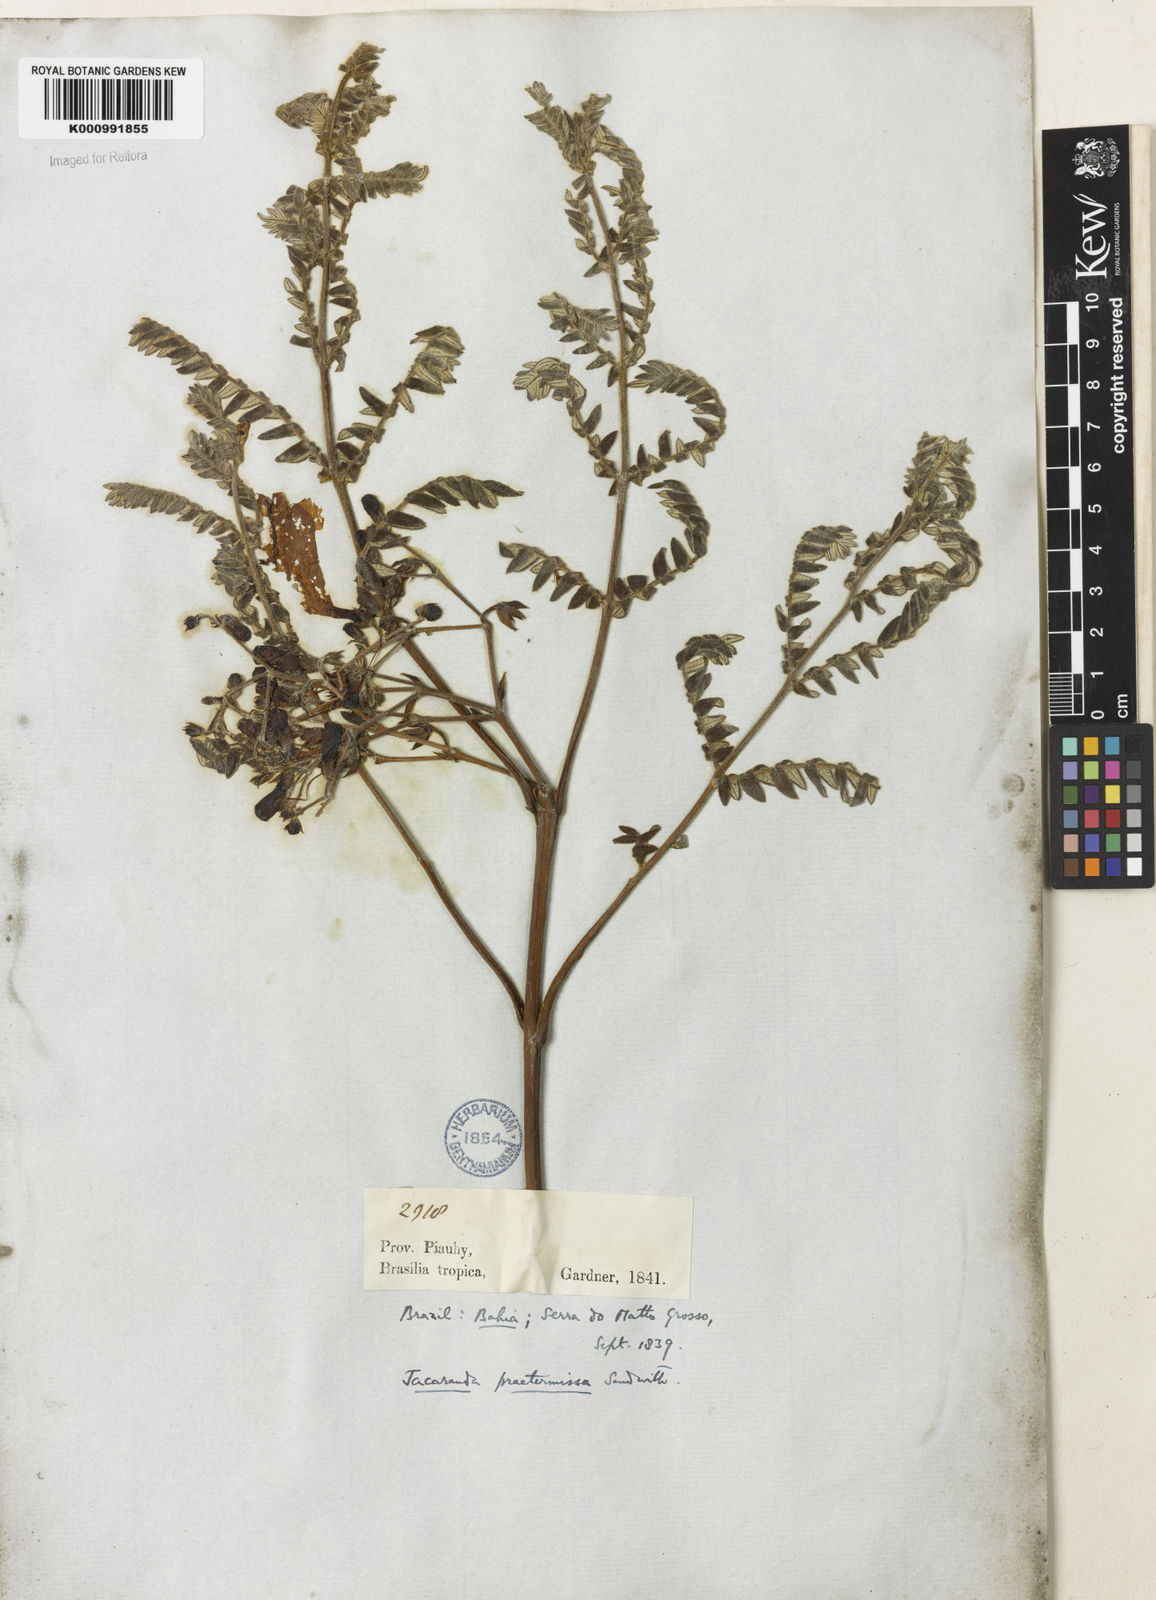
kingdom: Plantae
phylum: Tracheophyta
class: Magnoliopsida
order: Lamiales
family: Bignoniaceae
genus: Jacaranda
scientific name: Jacaranda praetermissa
